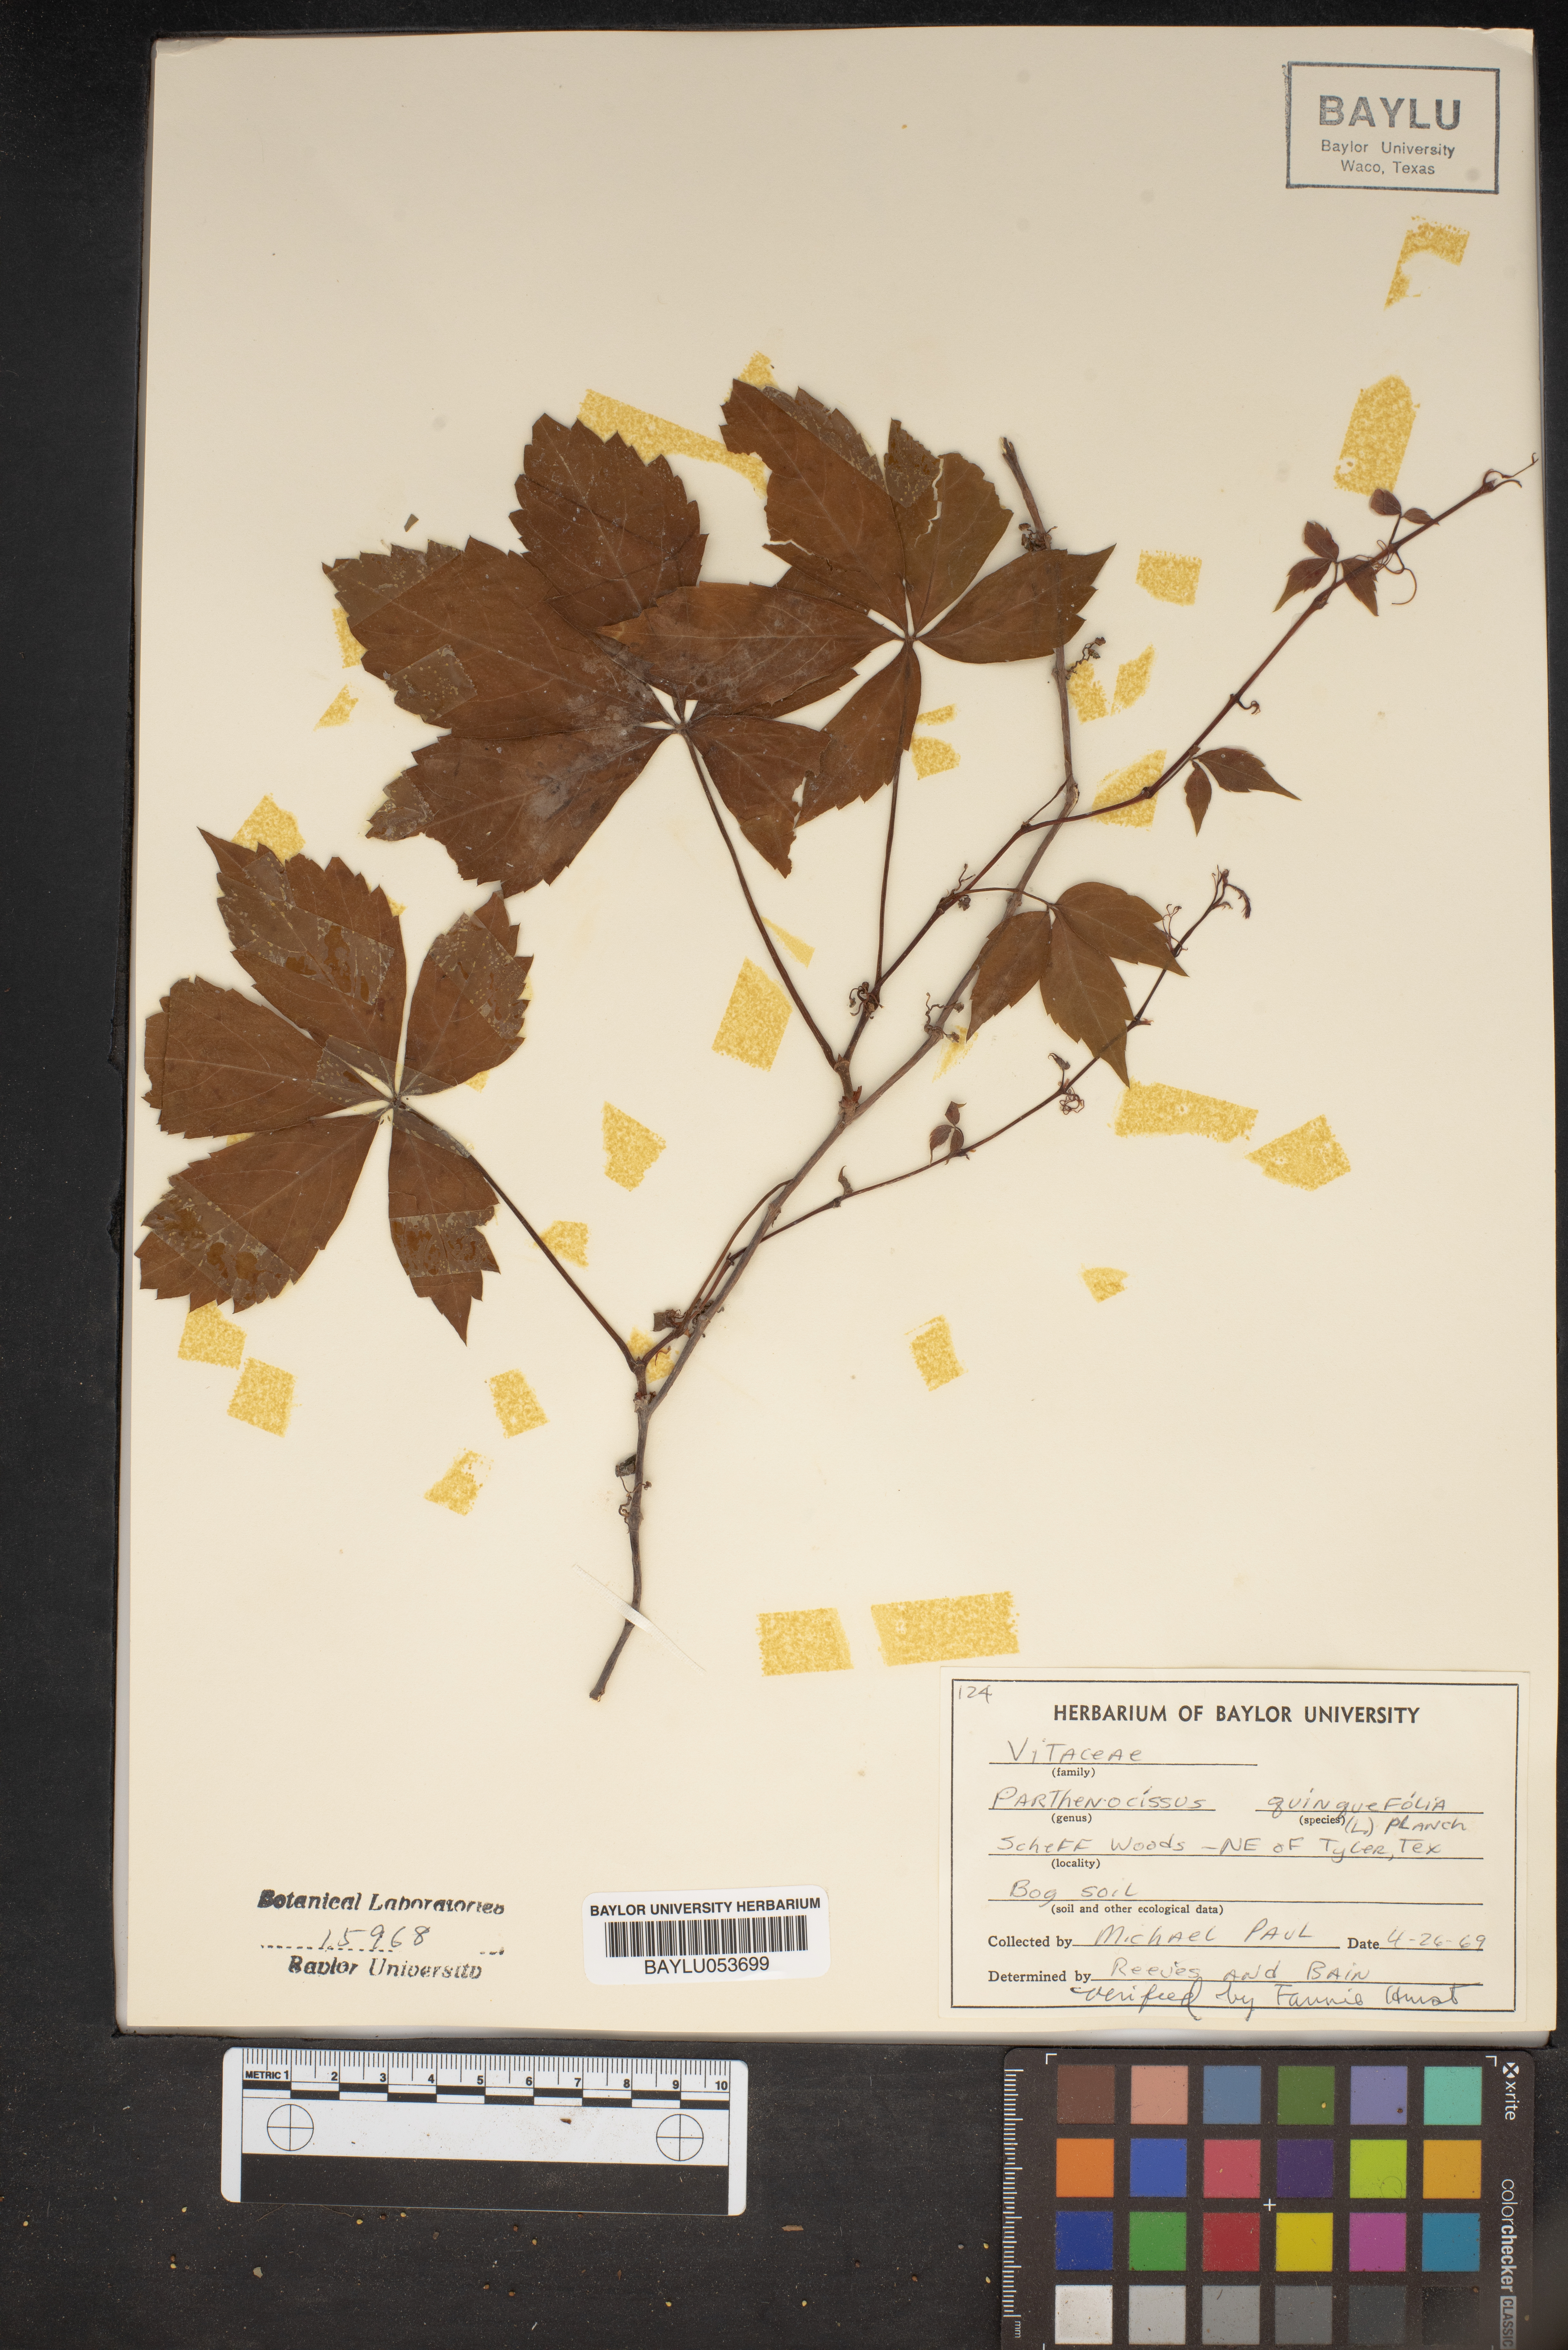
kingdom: Plantae
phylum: Tracheophyta
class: Magnoliopsida
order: Vitales
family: Vitaceae
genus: Parthenocissus
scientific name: Parthenocissus quinquefolia
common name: Virginia-creeper
